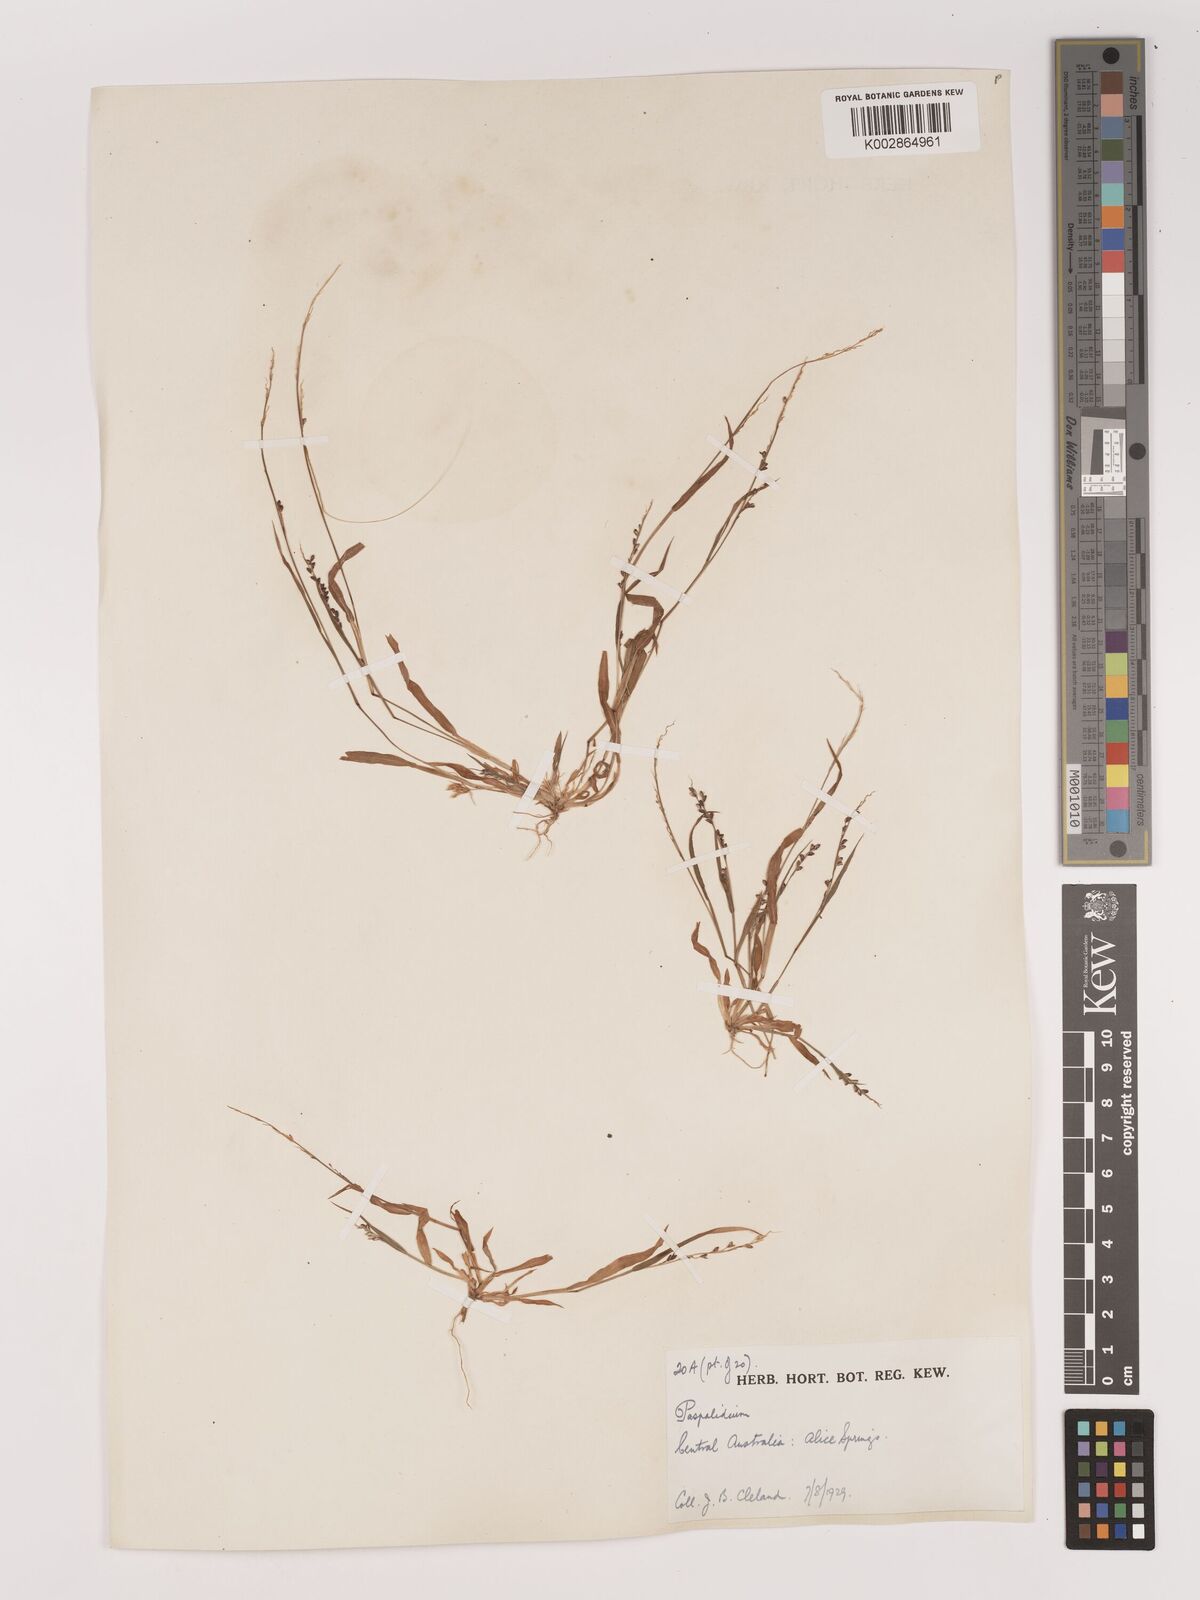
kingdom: Plantae
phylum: Tracheophyta
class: Liliopsida
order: Poales
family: Poaceae
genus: Setaria
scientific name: Setaria
